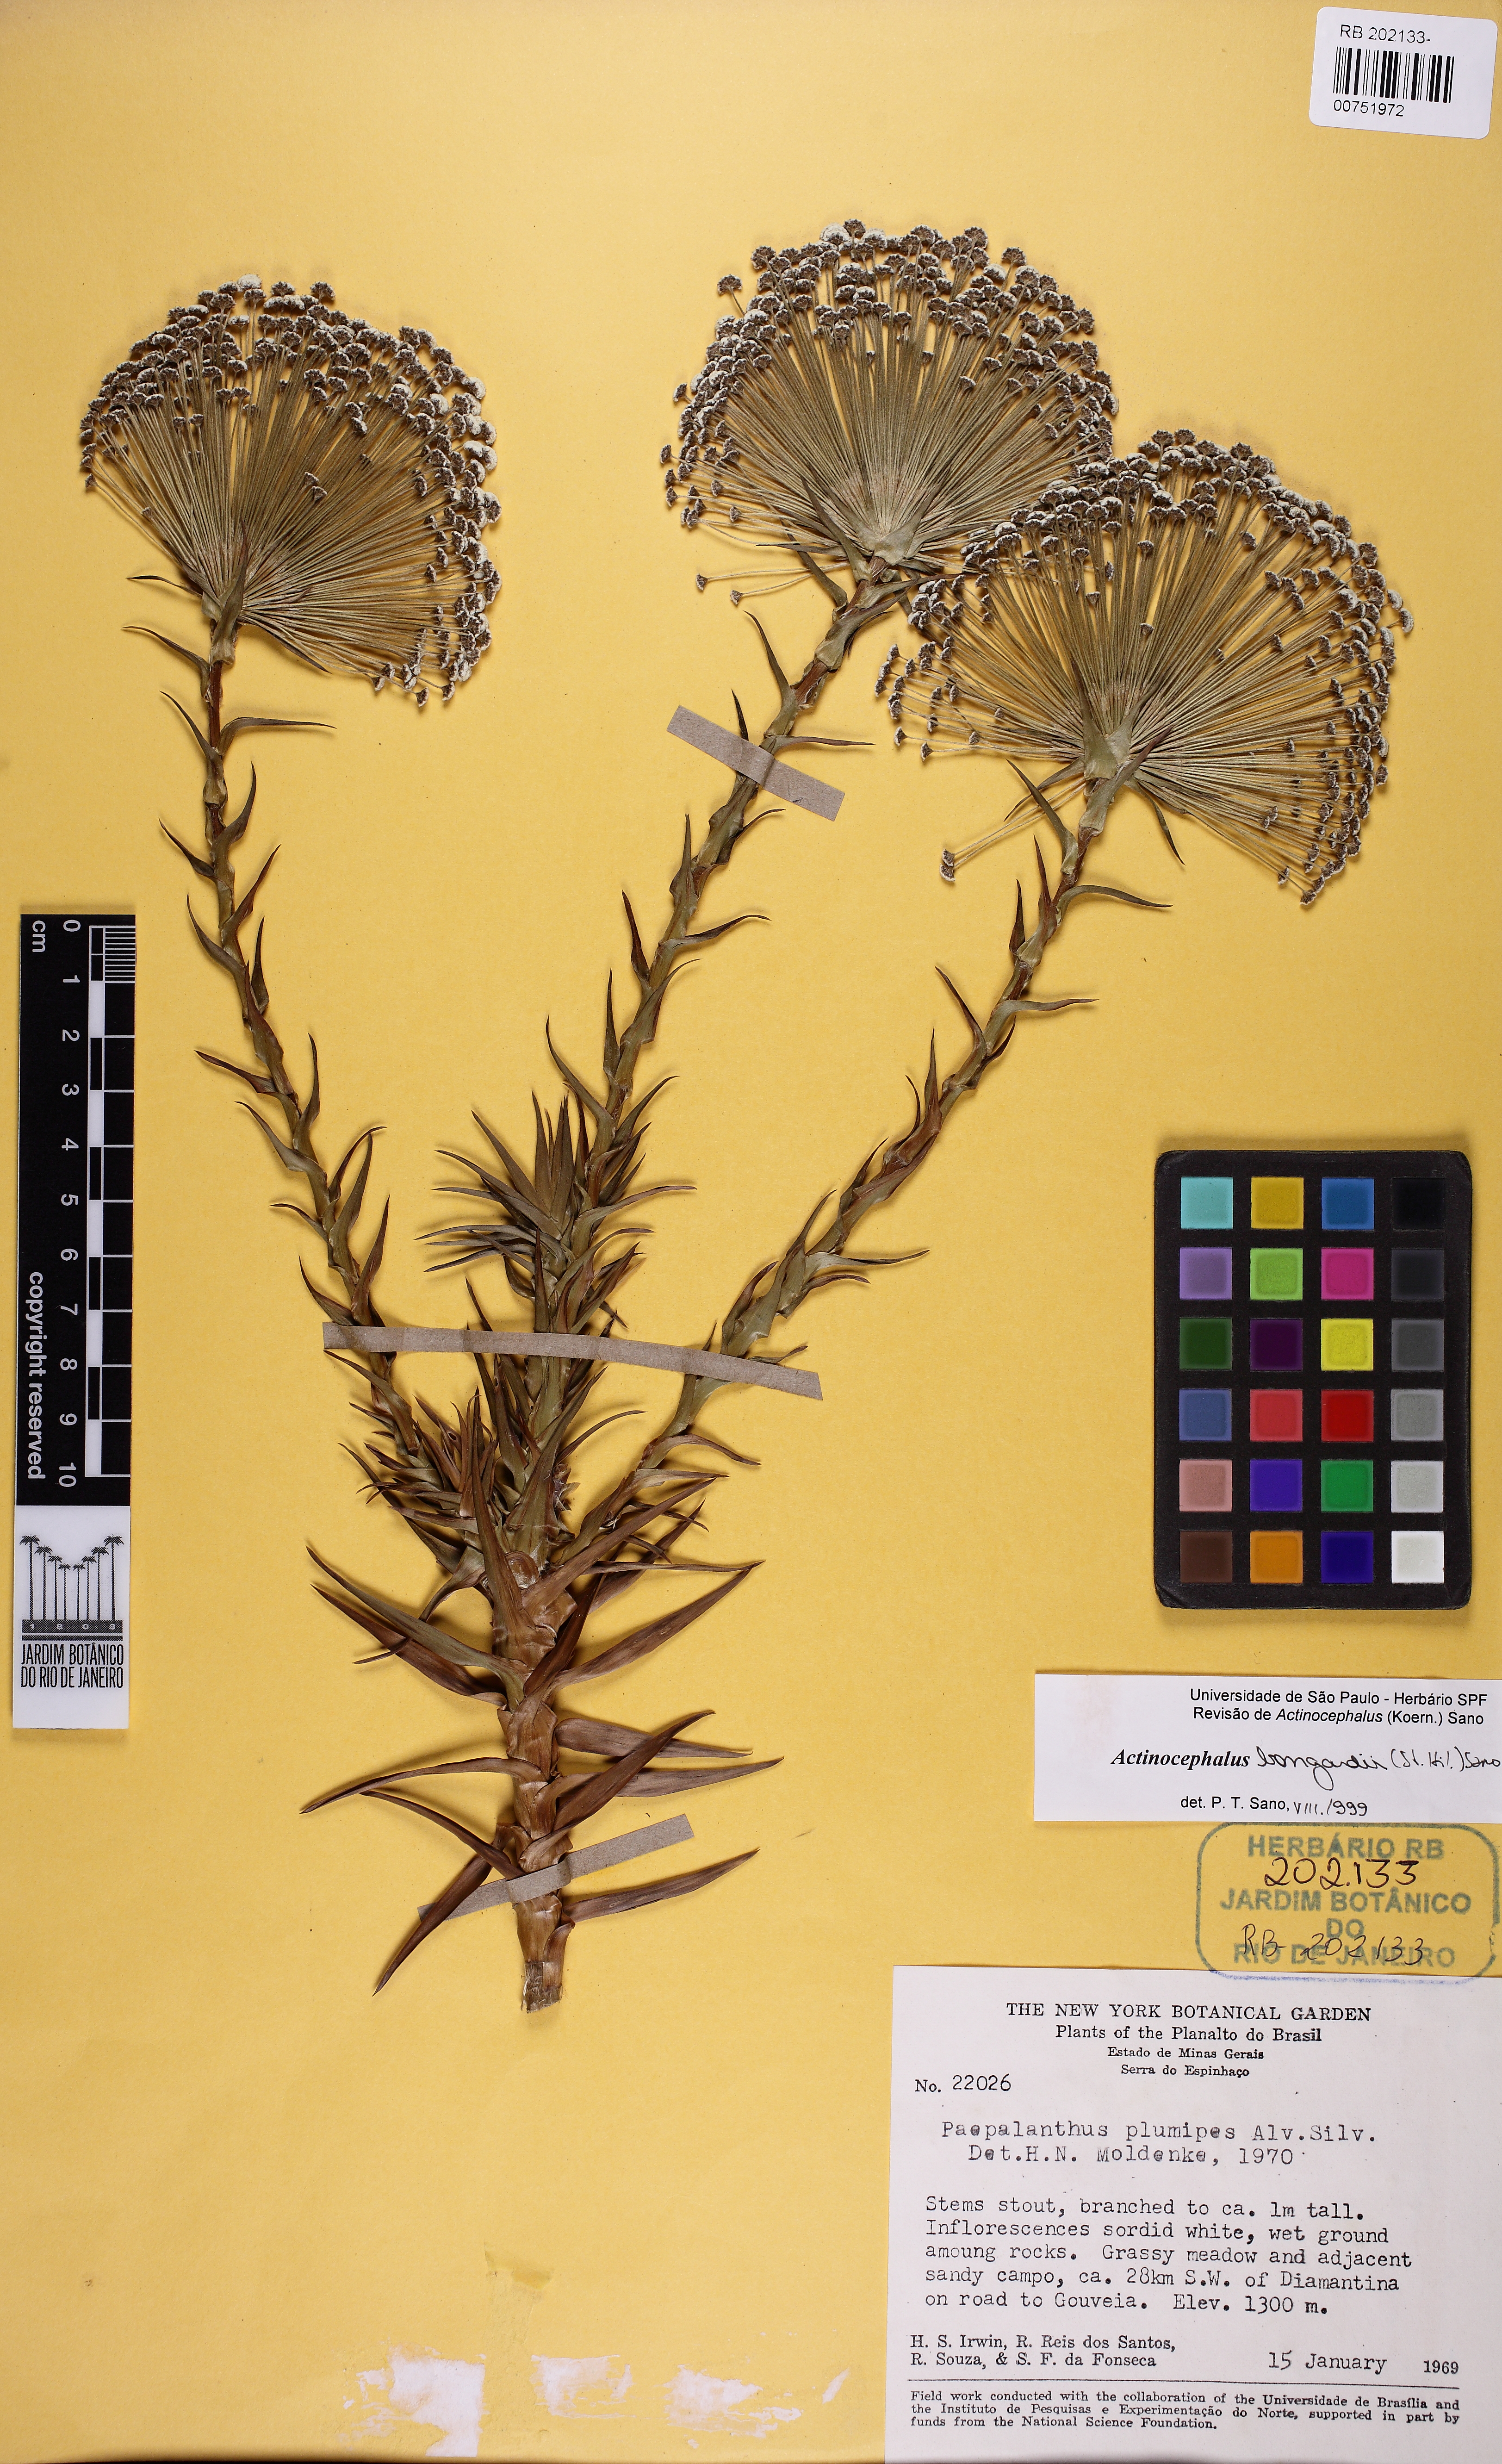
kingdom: Plantae
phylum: Tracheophyta
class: Liliopsida
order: Poales
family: Eriocaulaceae
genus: Paepalanthus
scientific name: Paepalanthus hilairei
